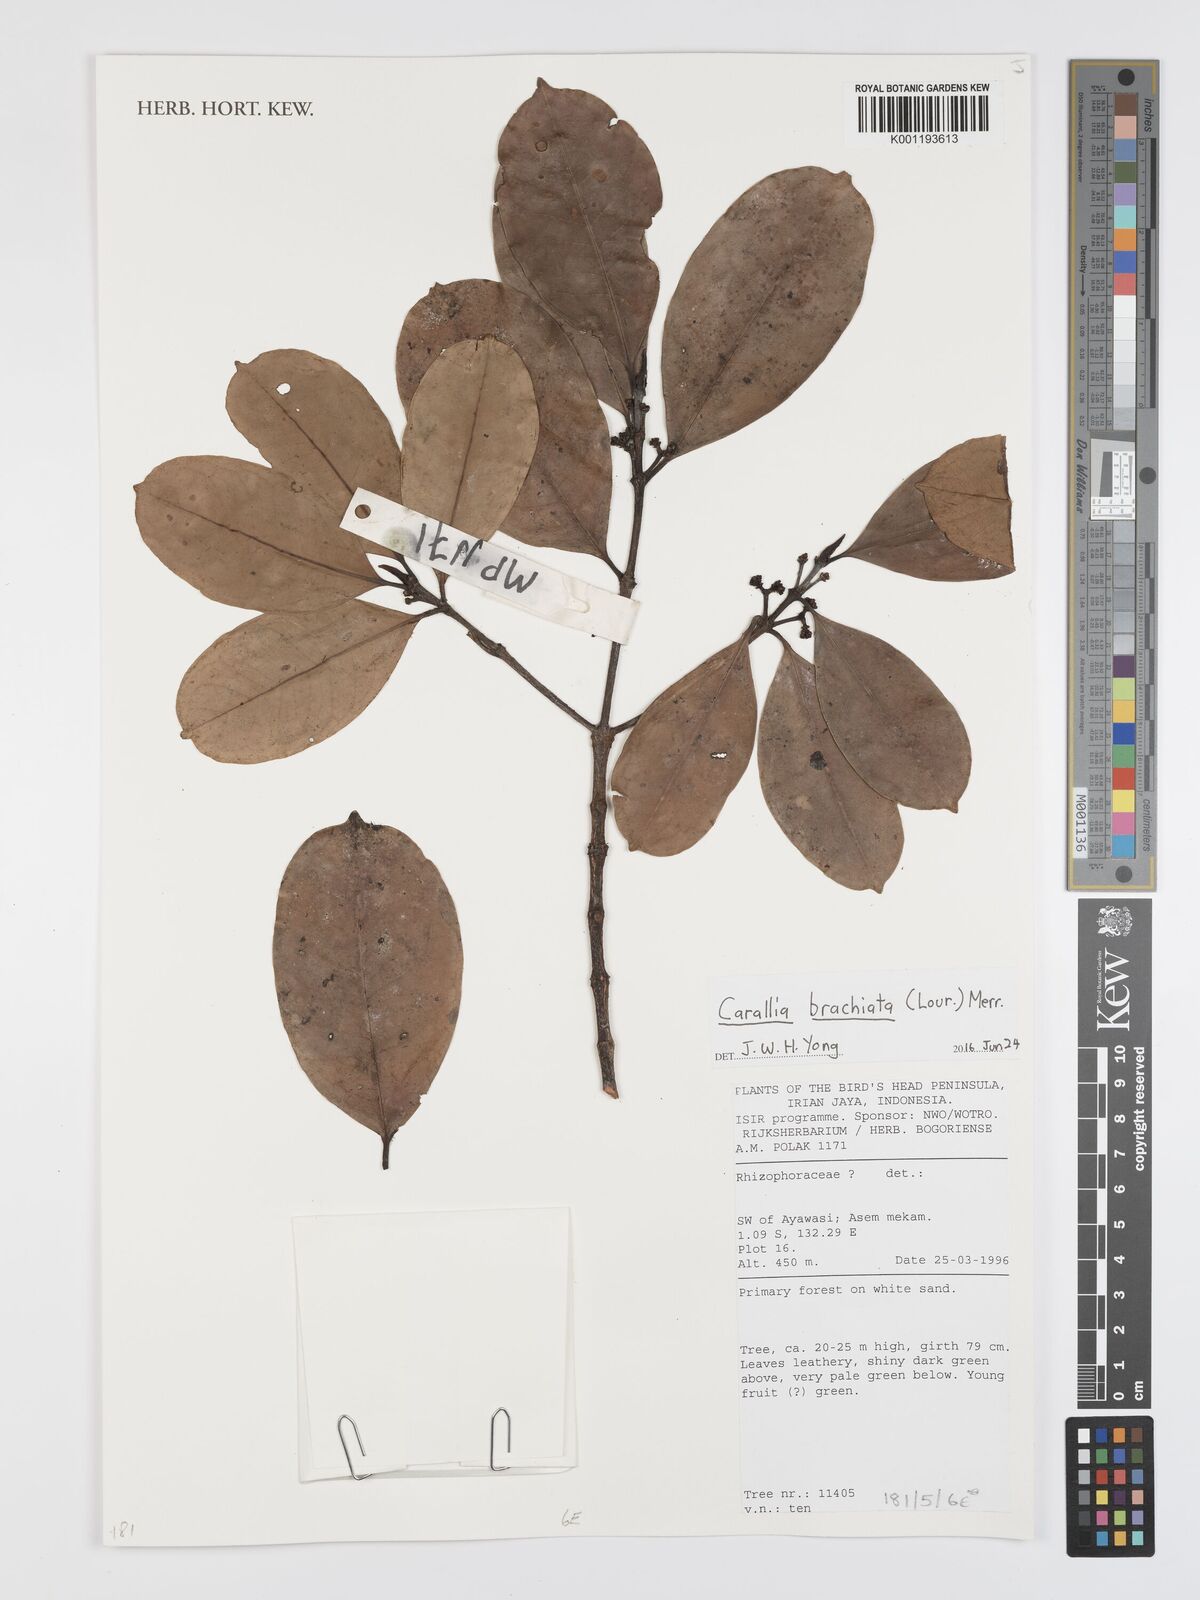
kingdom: Plantae
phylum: Tracheophyta
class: Magnoliopsida
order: Malpighiales
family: Rhizophoraceae
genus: Carallia
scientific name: Carallia brachiata
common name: Carallawood
